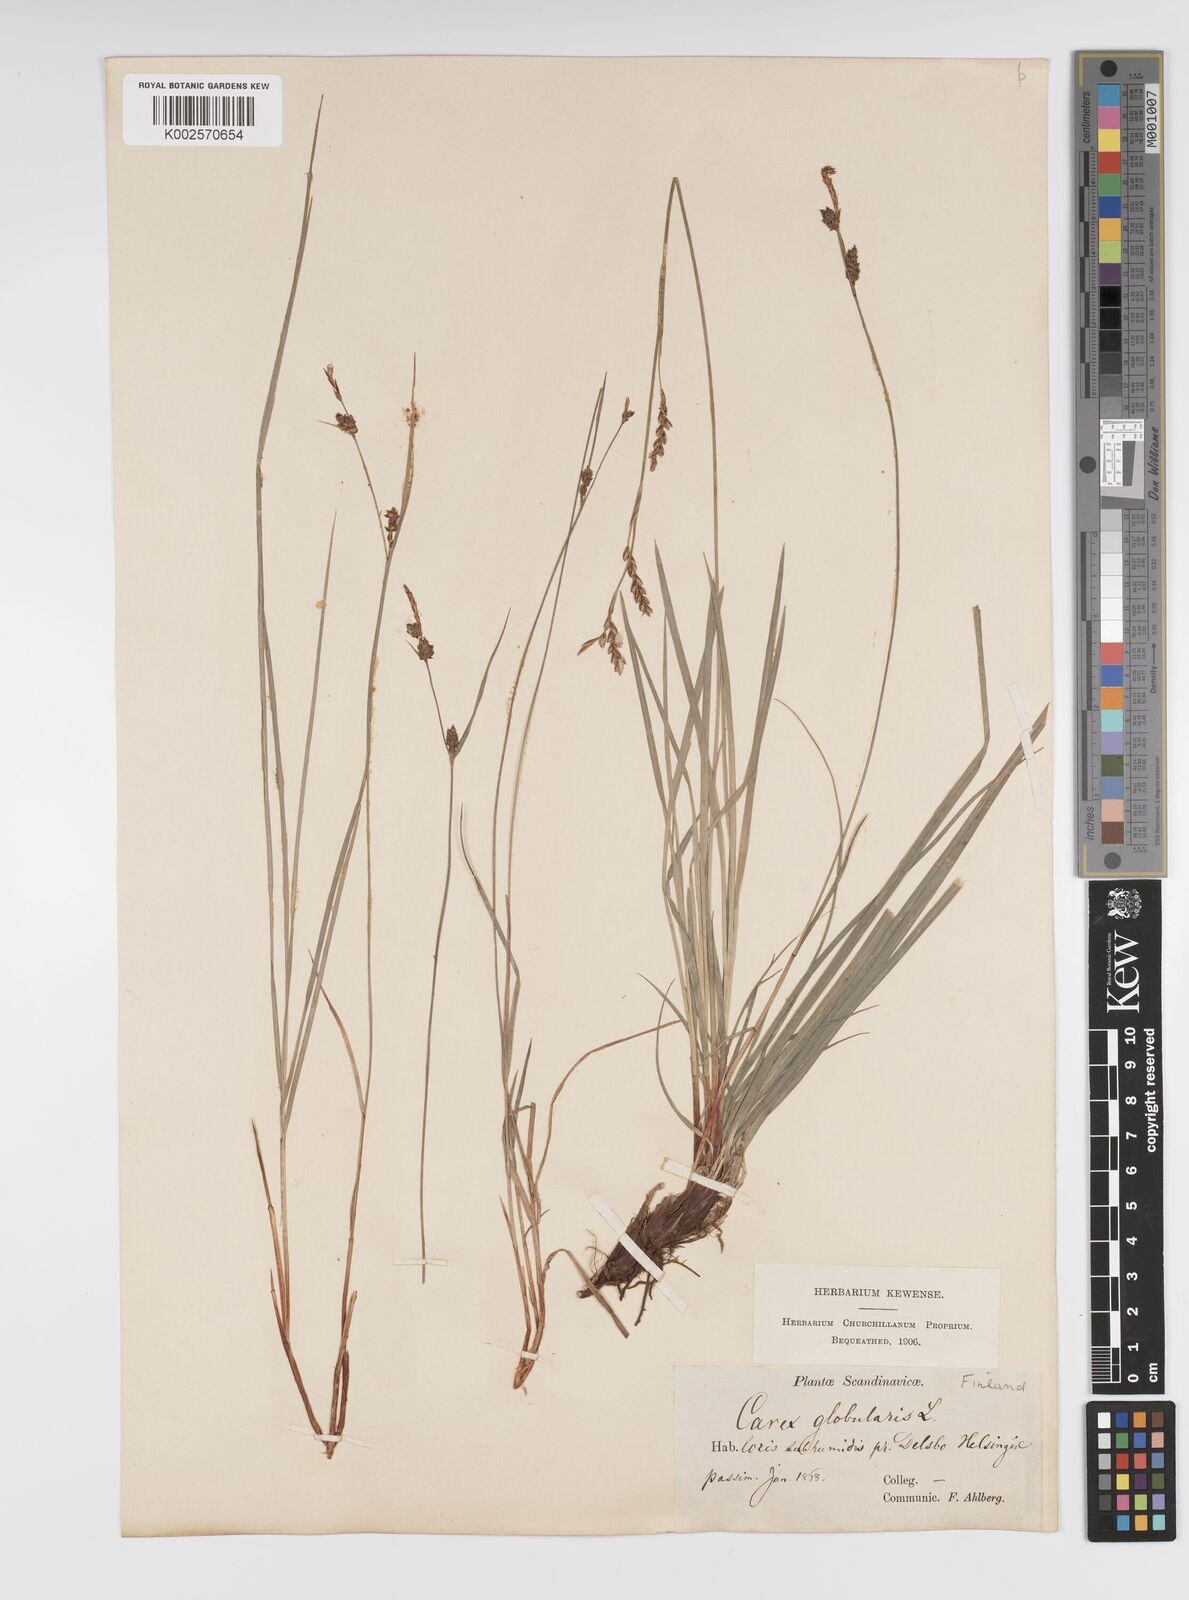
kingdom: Plantae
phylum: Tracheophyta
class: Liliopsida
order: Poales
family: Cyperaceae
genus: Carex
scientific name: Carex globularis
